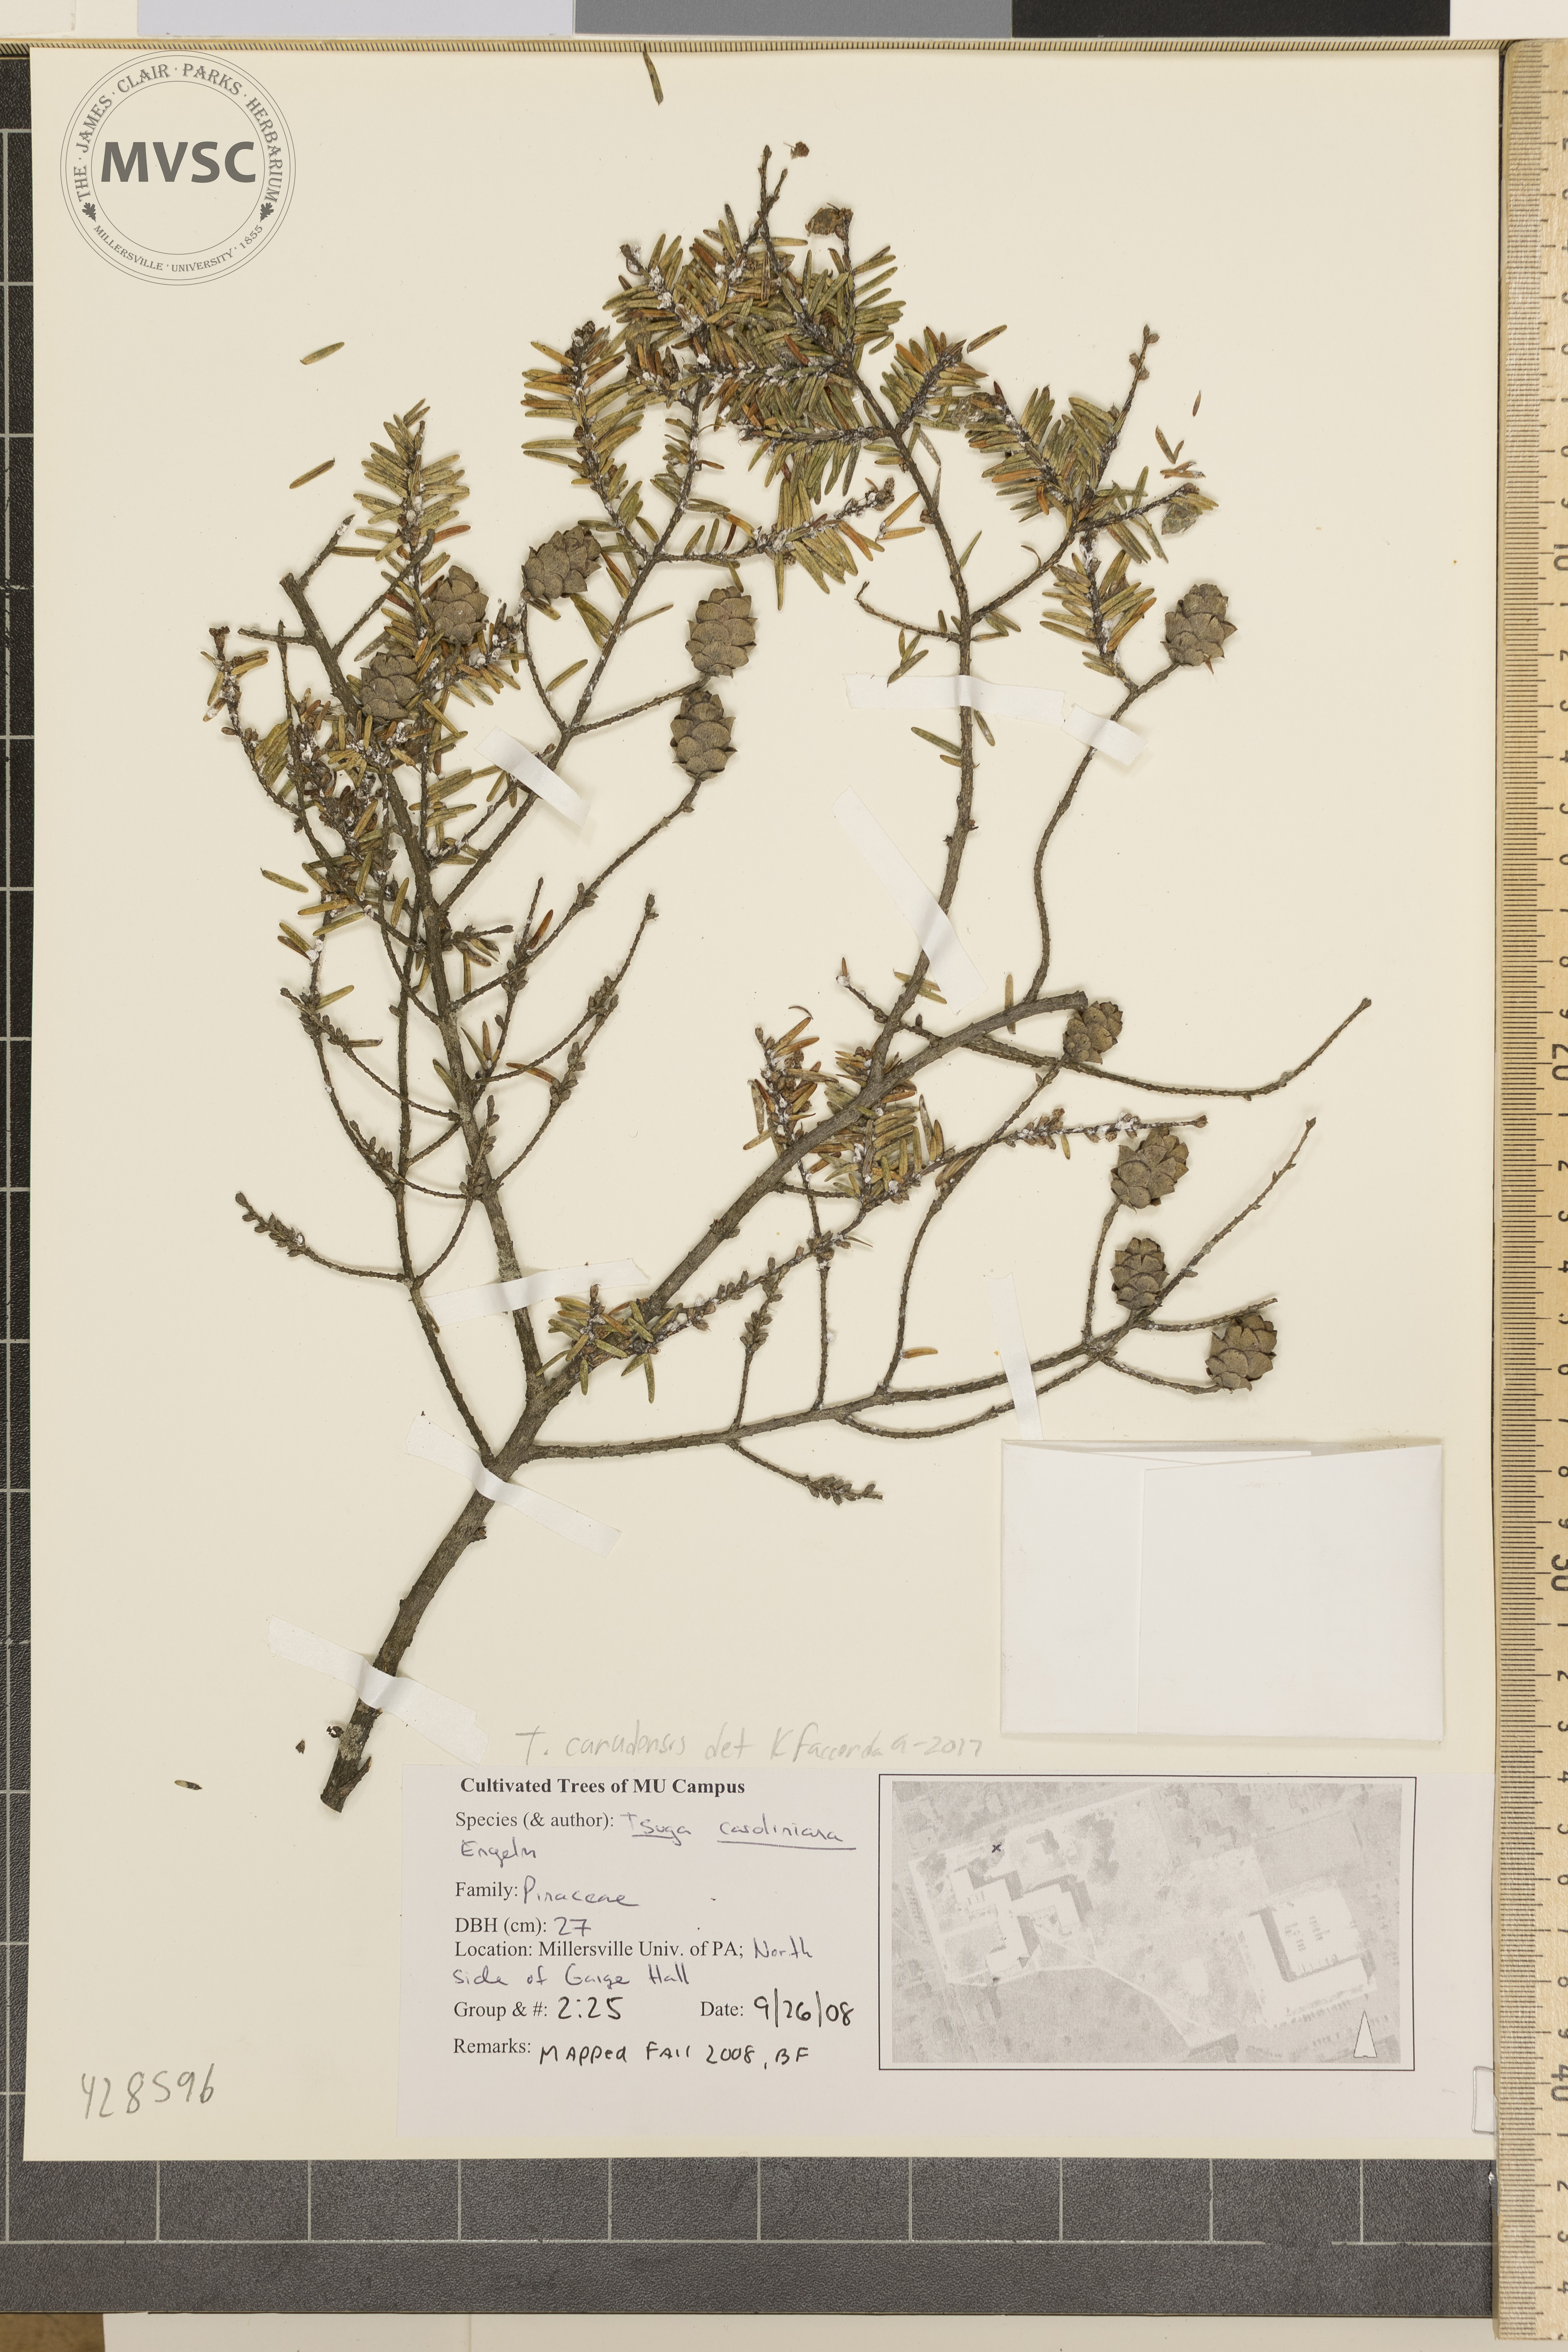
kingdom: Plantae
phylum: Tracheophyta
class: Pinopsida
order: Pinales
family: Pinaceae
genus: Tsuga
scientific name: Tsuga canadensis
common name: Eastern hemlock
